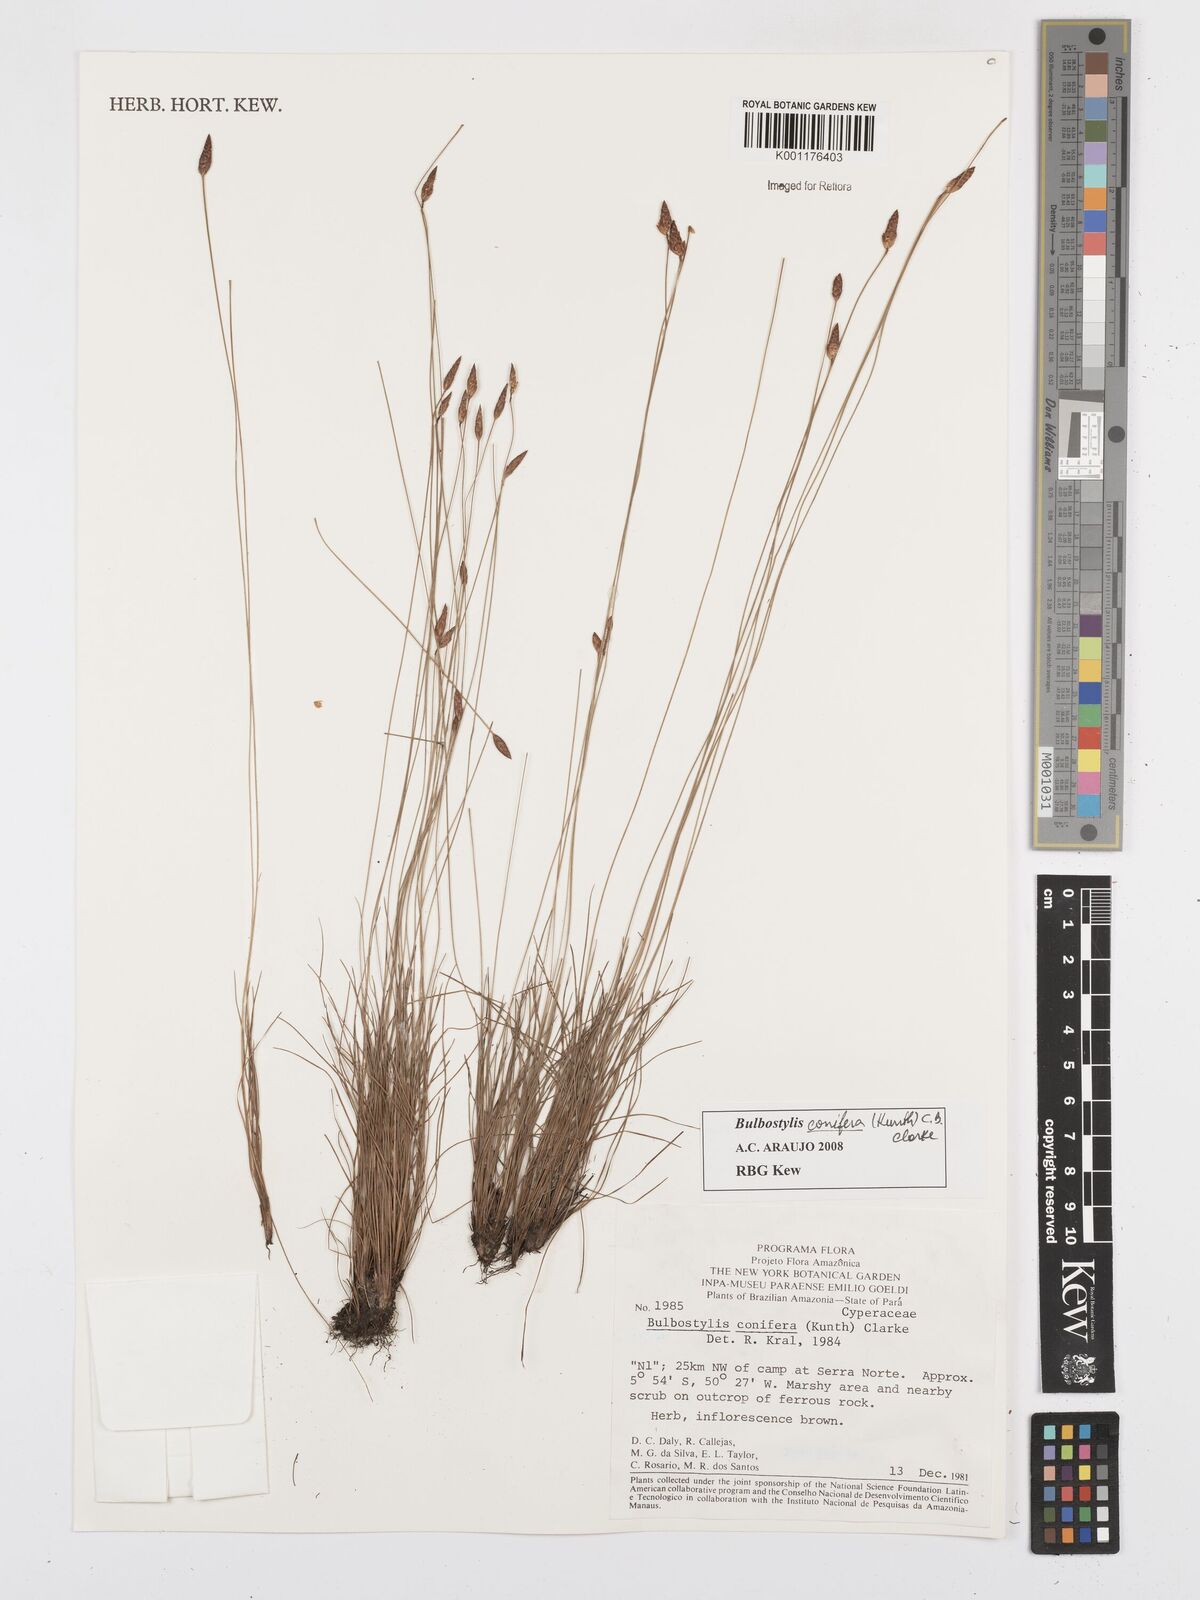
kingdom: Plantae
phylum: Tracheophyta
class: Liliopsida
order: Poales
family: Cyperaceae
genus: Bulbostylis
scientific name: Bulbostylis conifera
